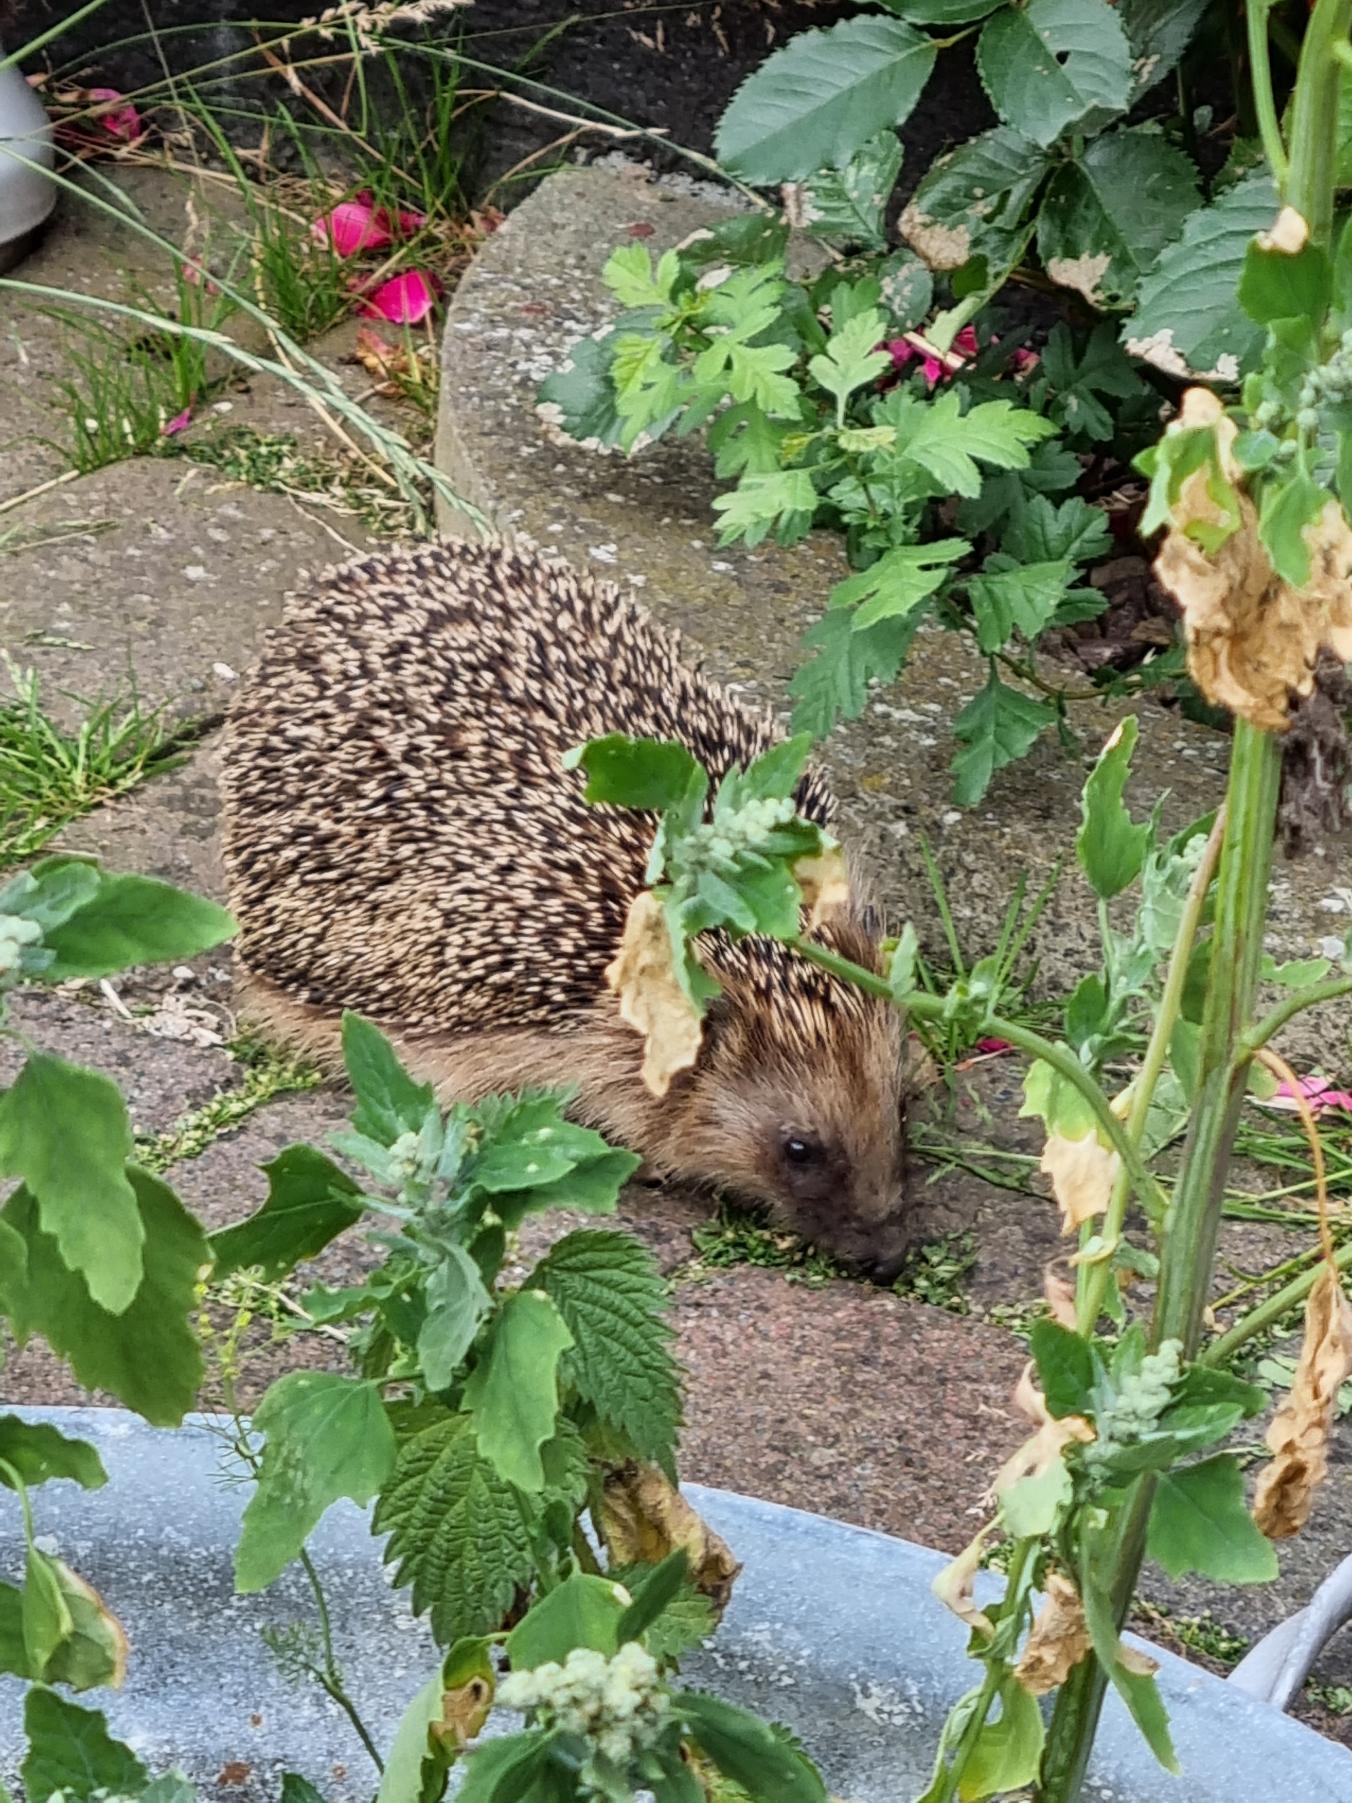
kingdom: Animalia
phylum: Chordata
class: Mammalia
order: Erinaceomorpha
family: Erinaceidae
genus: Erinaceus
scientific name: Erinaceus europaeus
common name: Pindsvin
